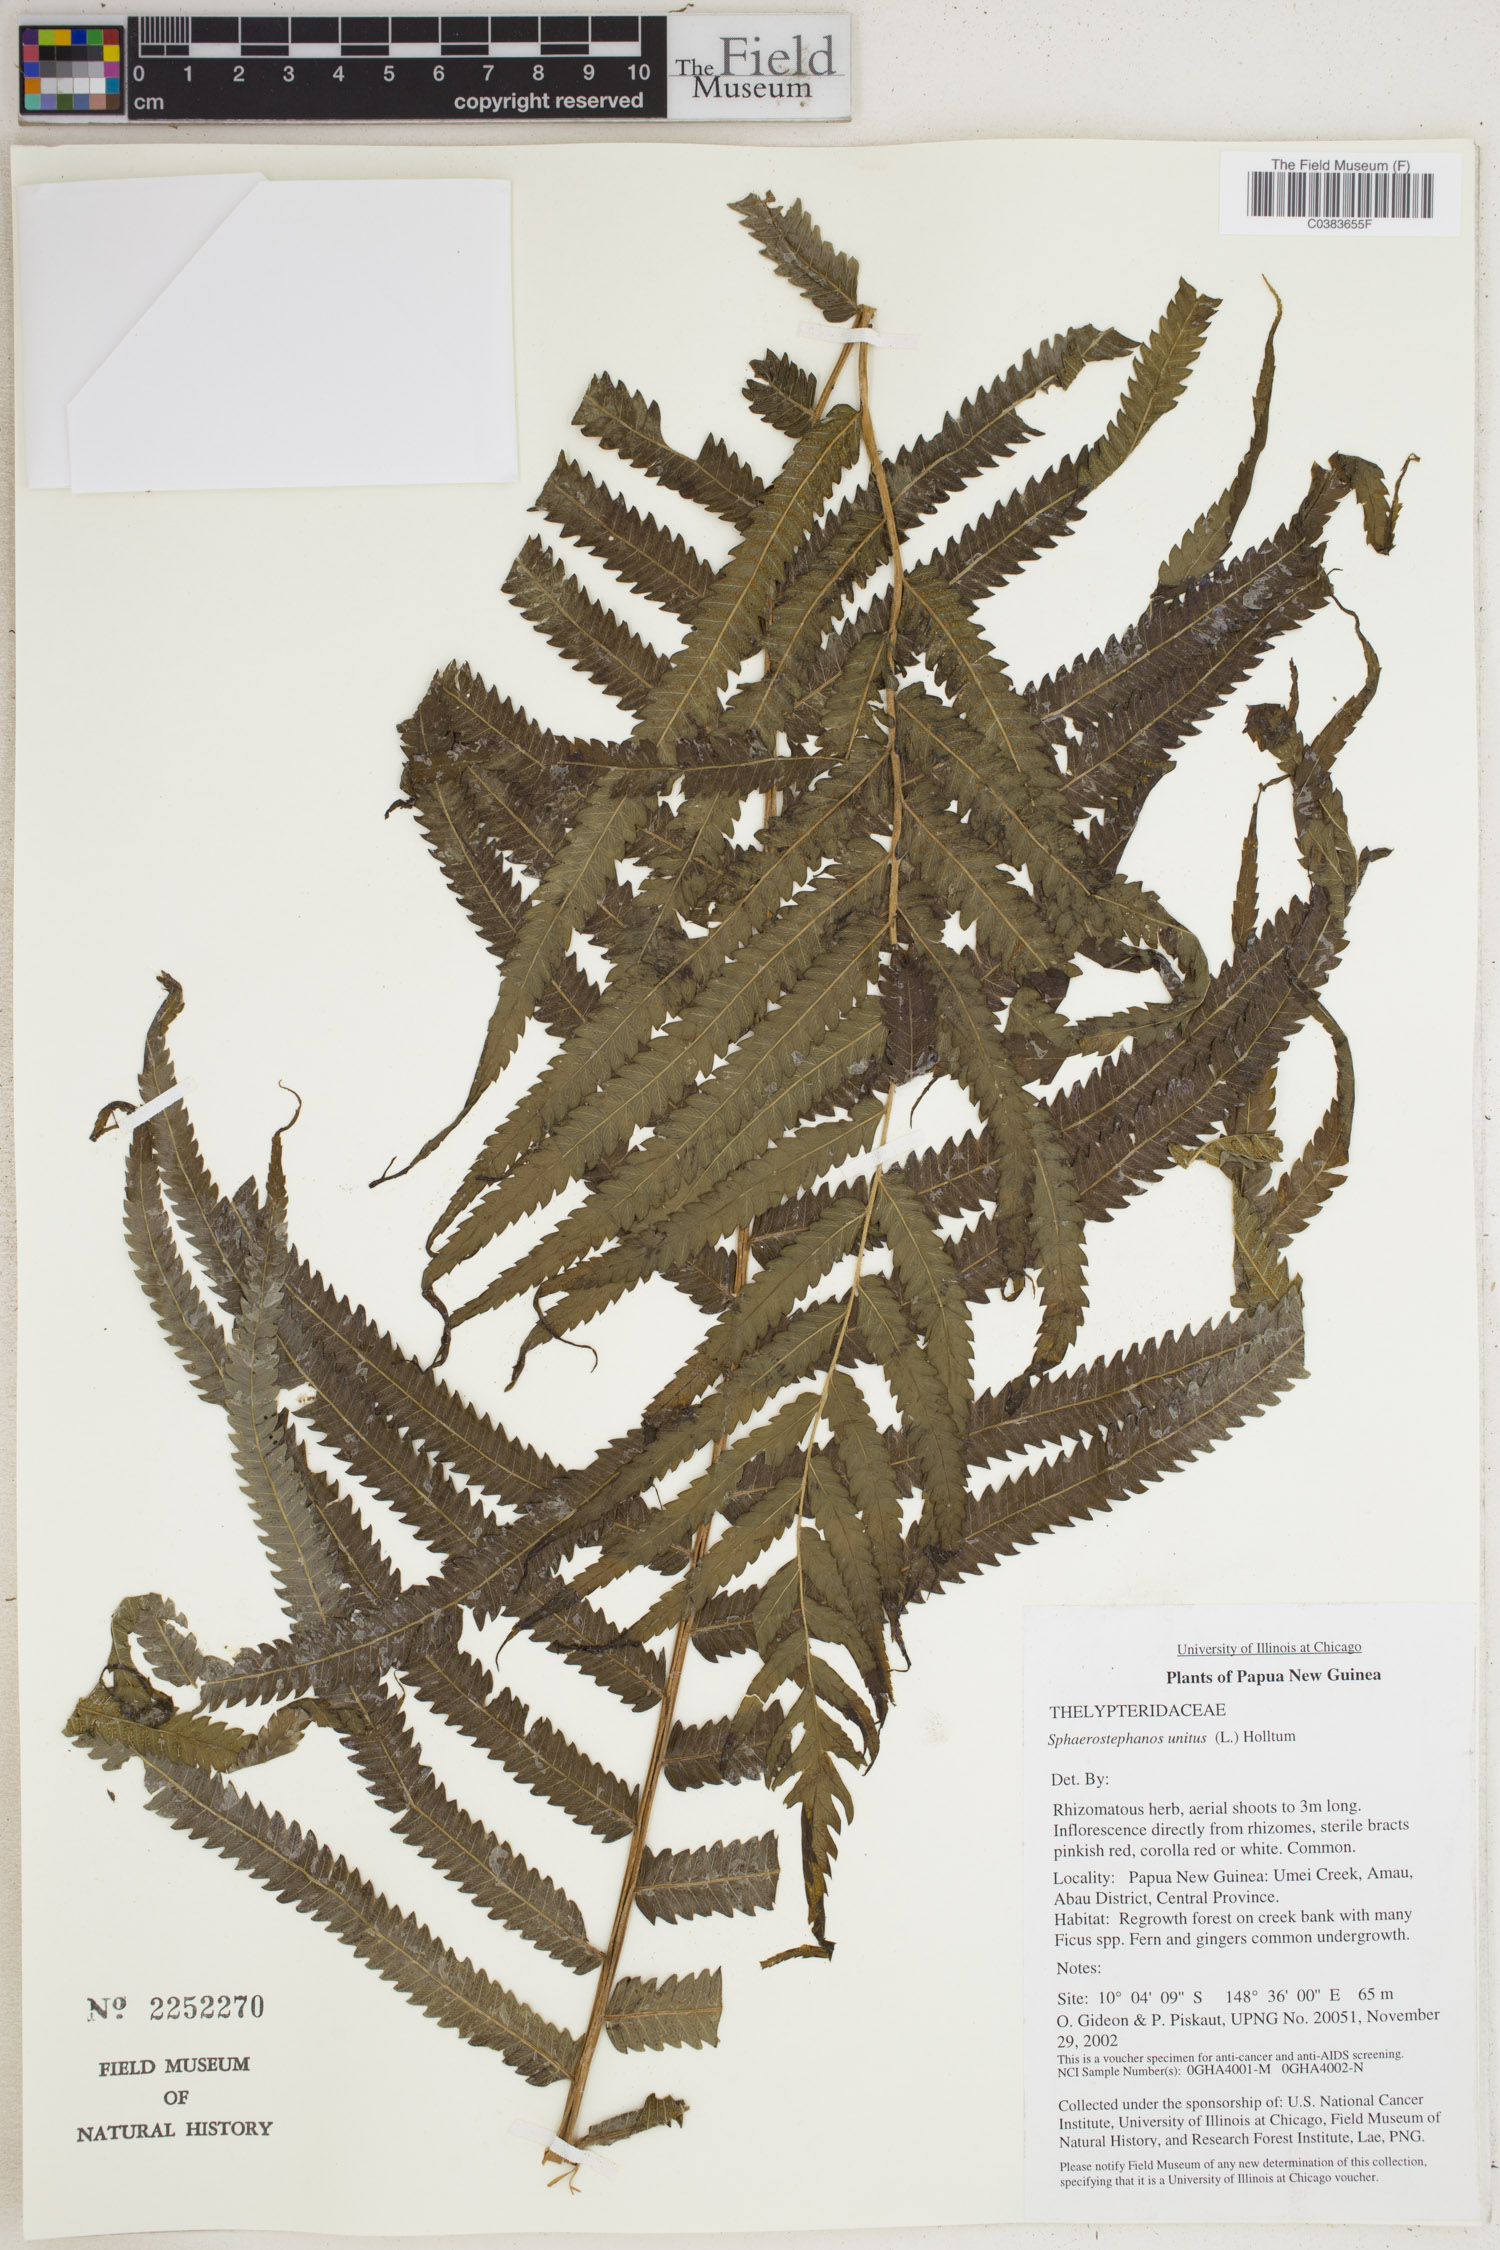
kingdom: Plantae
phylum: Tracheophyta
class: Polypodiopsida
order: Polypodiales
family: Thelypteridaceae
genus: Strophocaulon
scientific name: Strophocaulon unitum
